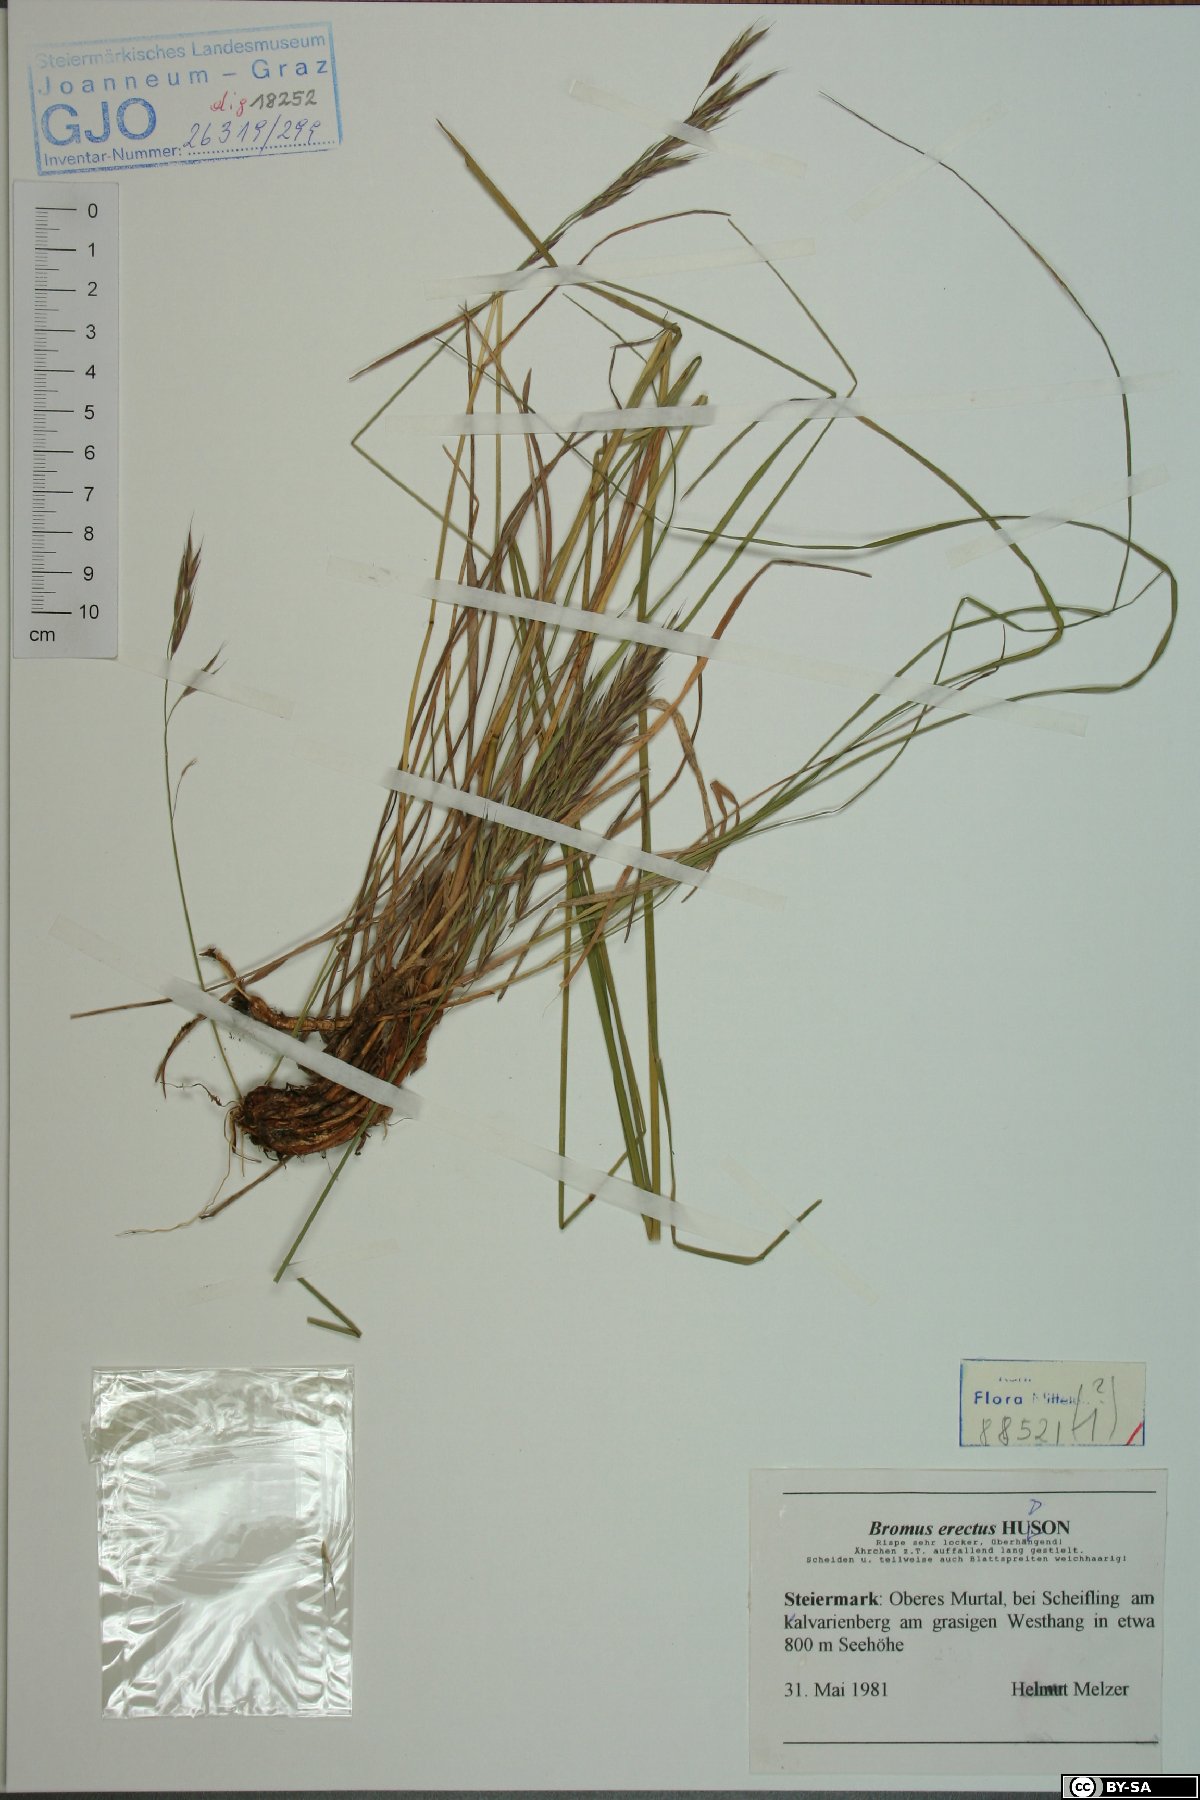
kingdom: Plantae
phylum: Tracheophyta
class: Liliopsida
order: Poales
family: Poaceae
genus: Bromus
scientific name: Bromus erectus
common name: Erect brome
